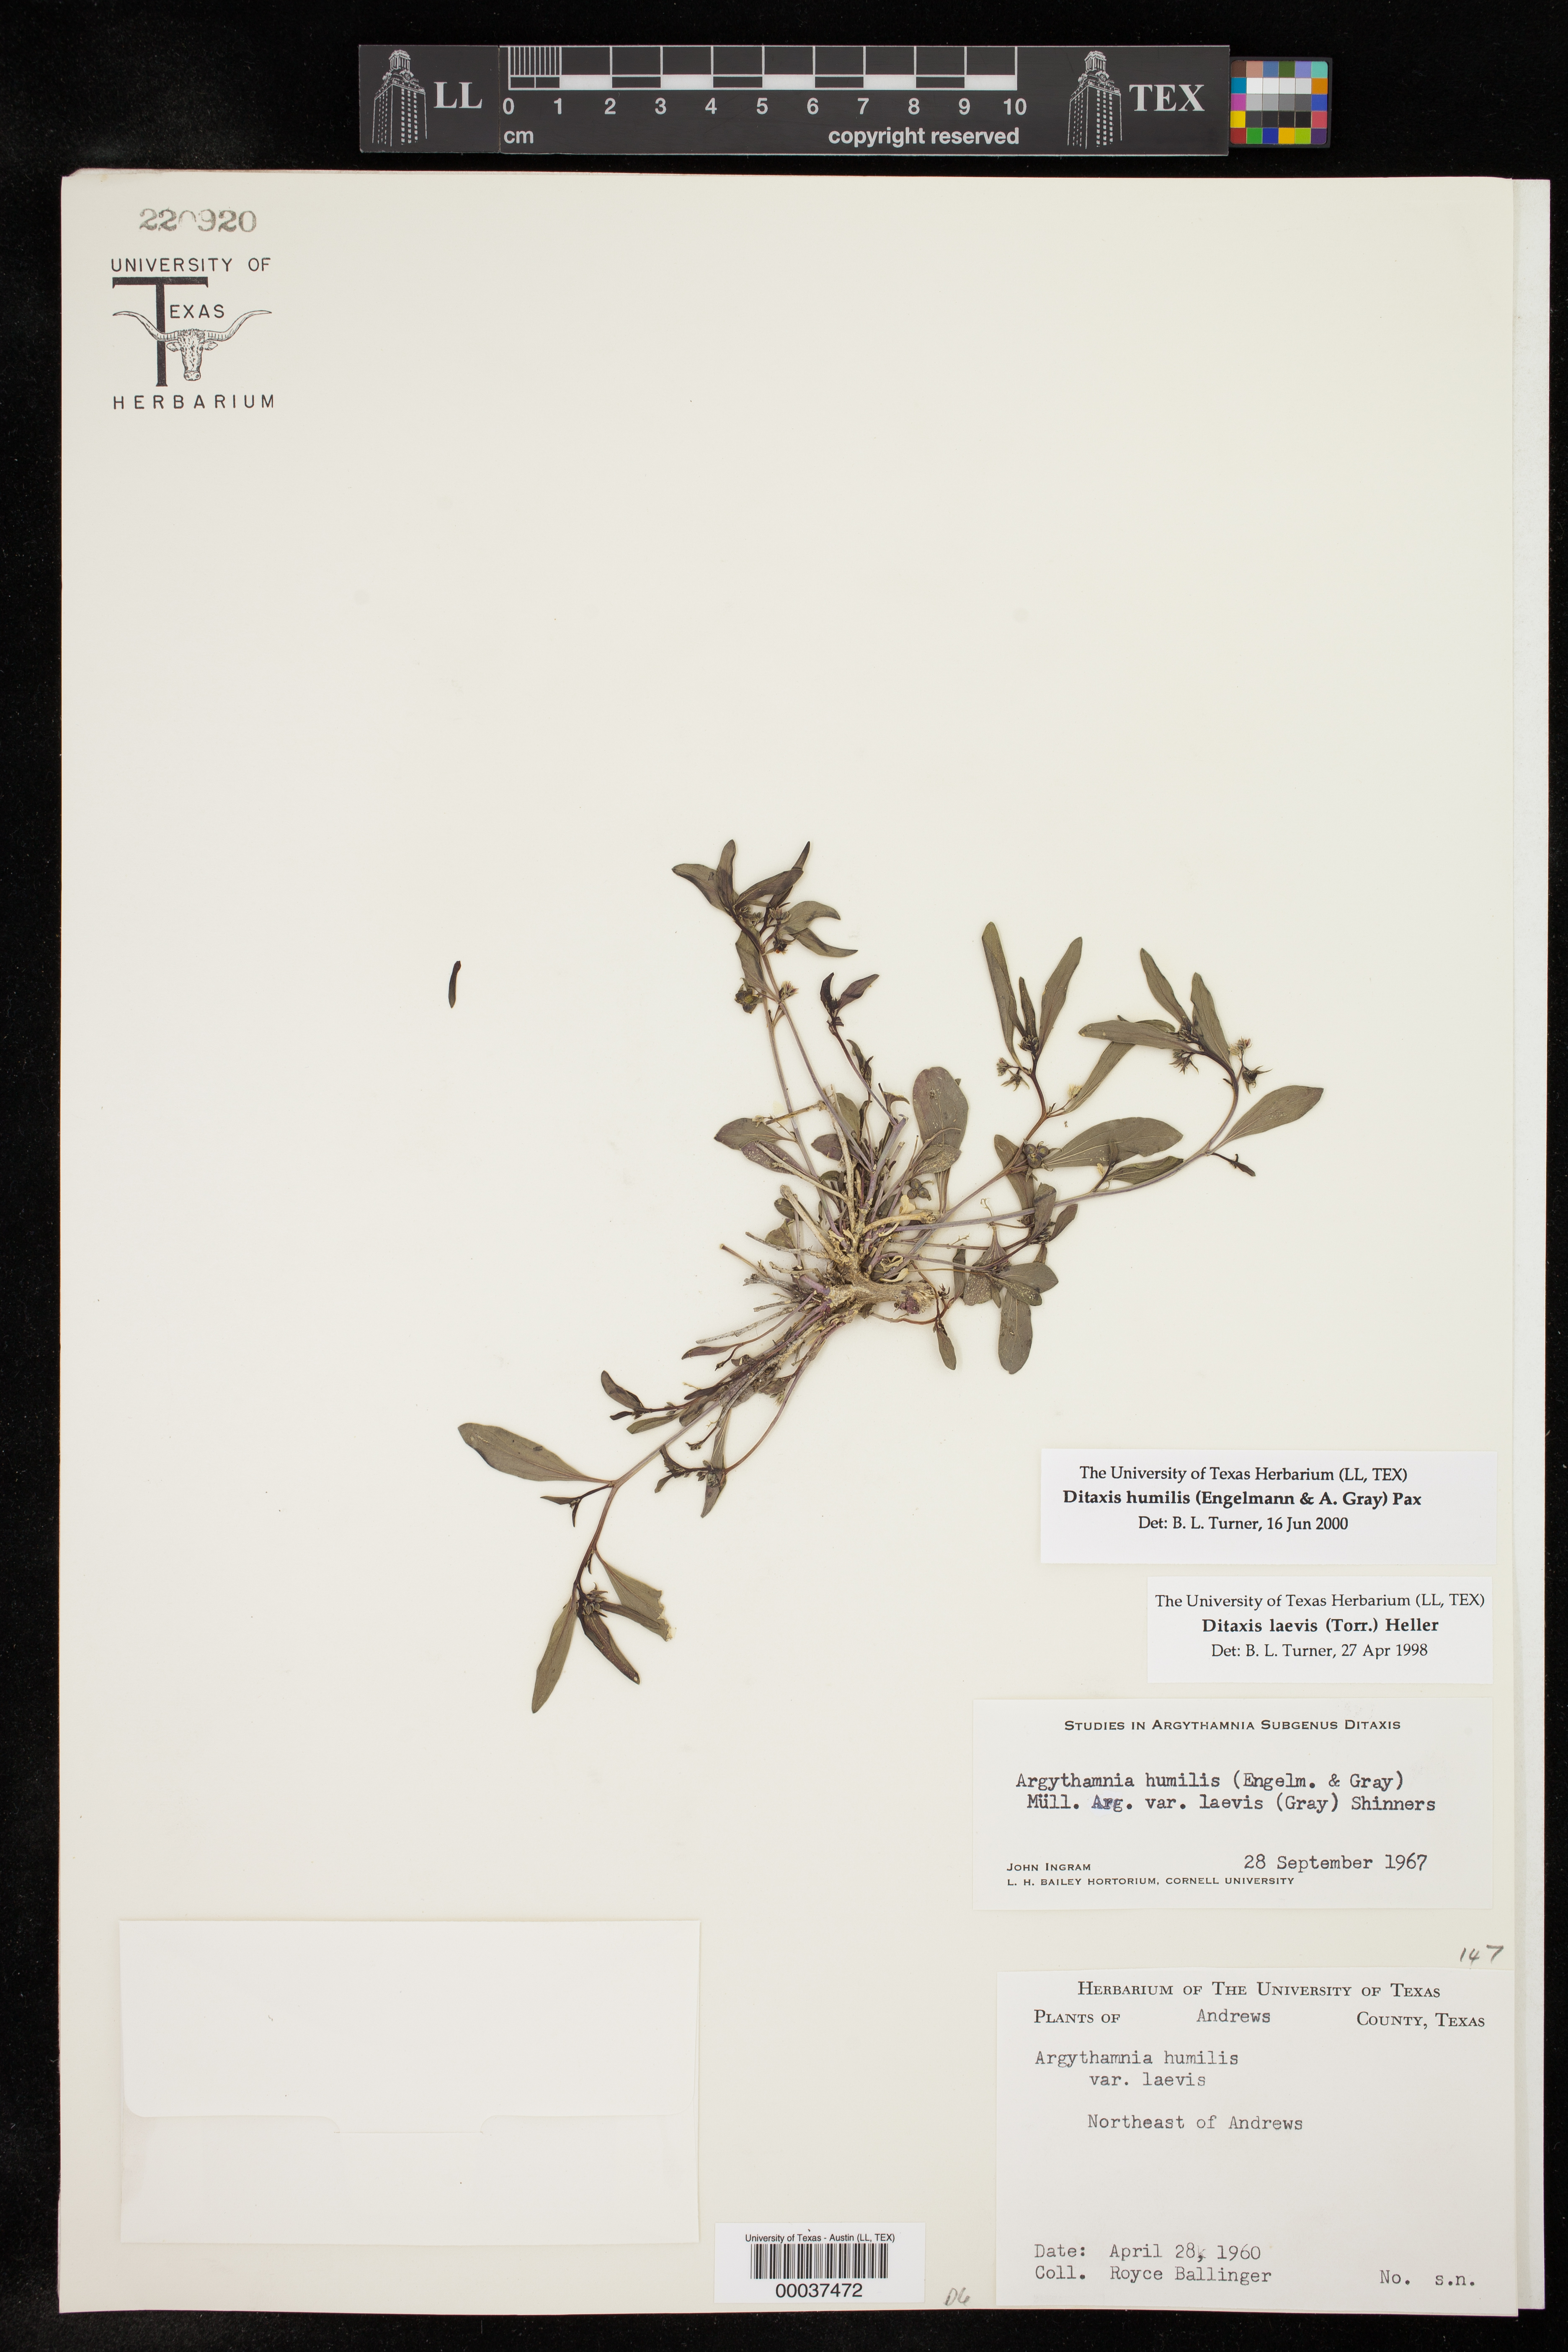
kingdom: Plantae
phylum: Tracheophyta
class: Magnoliopsida
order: Malpighiales
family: Euphorbiaceae
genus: Ditaxis
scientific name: Ditaxis humilis
